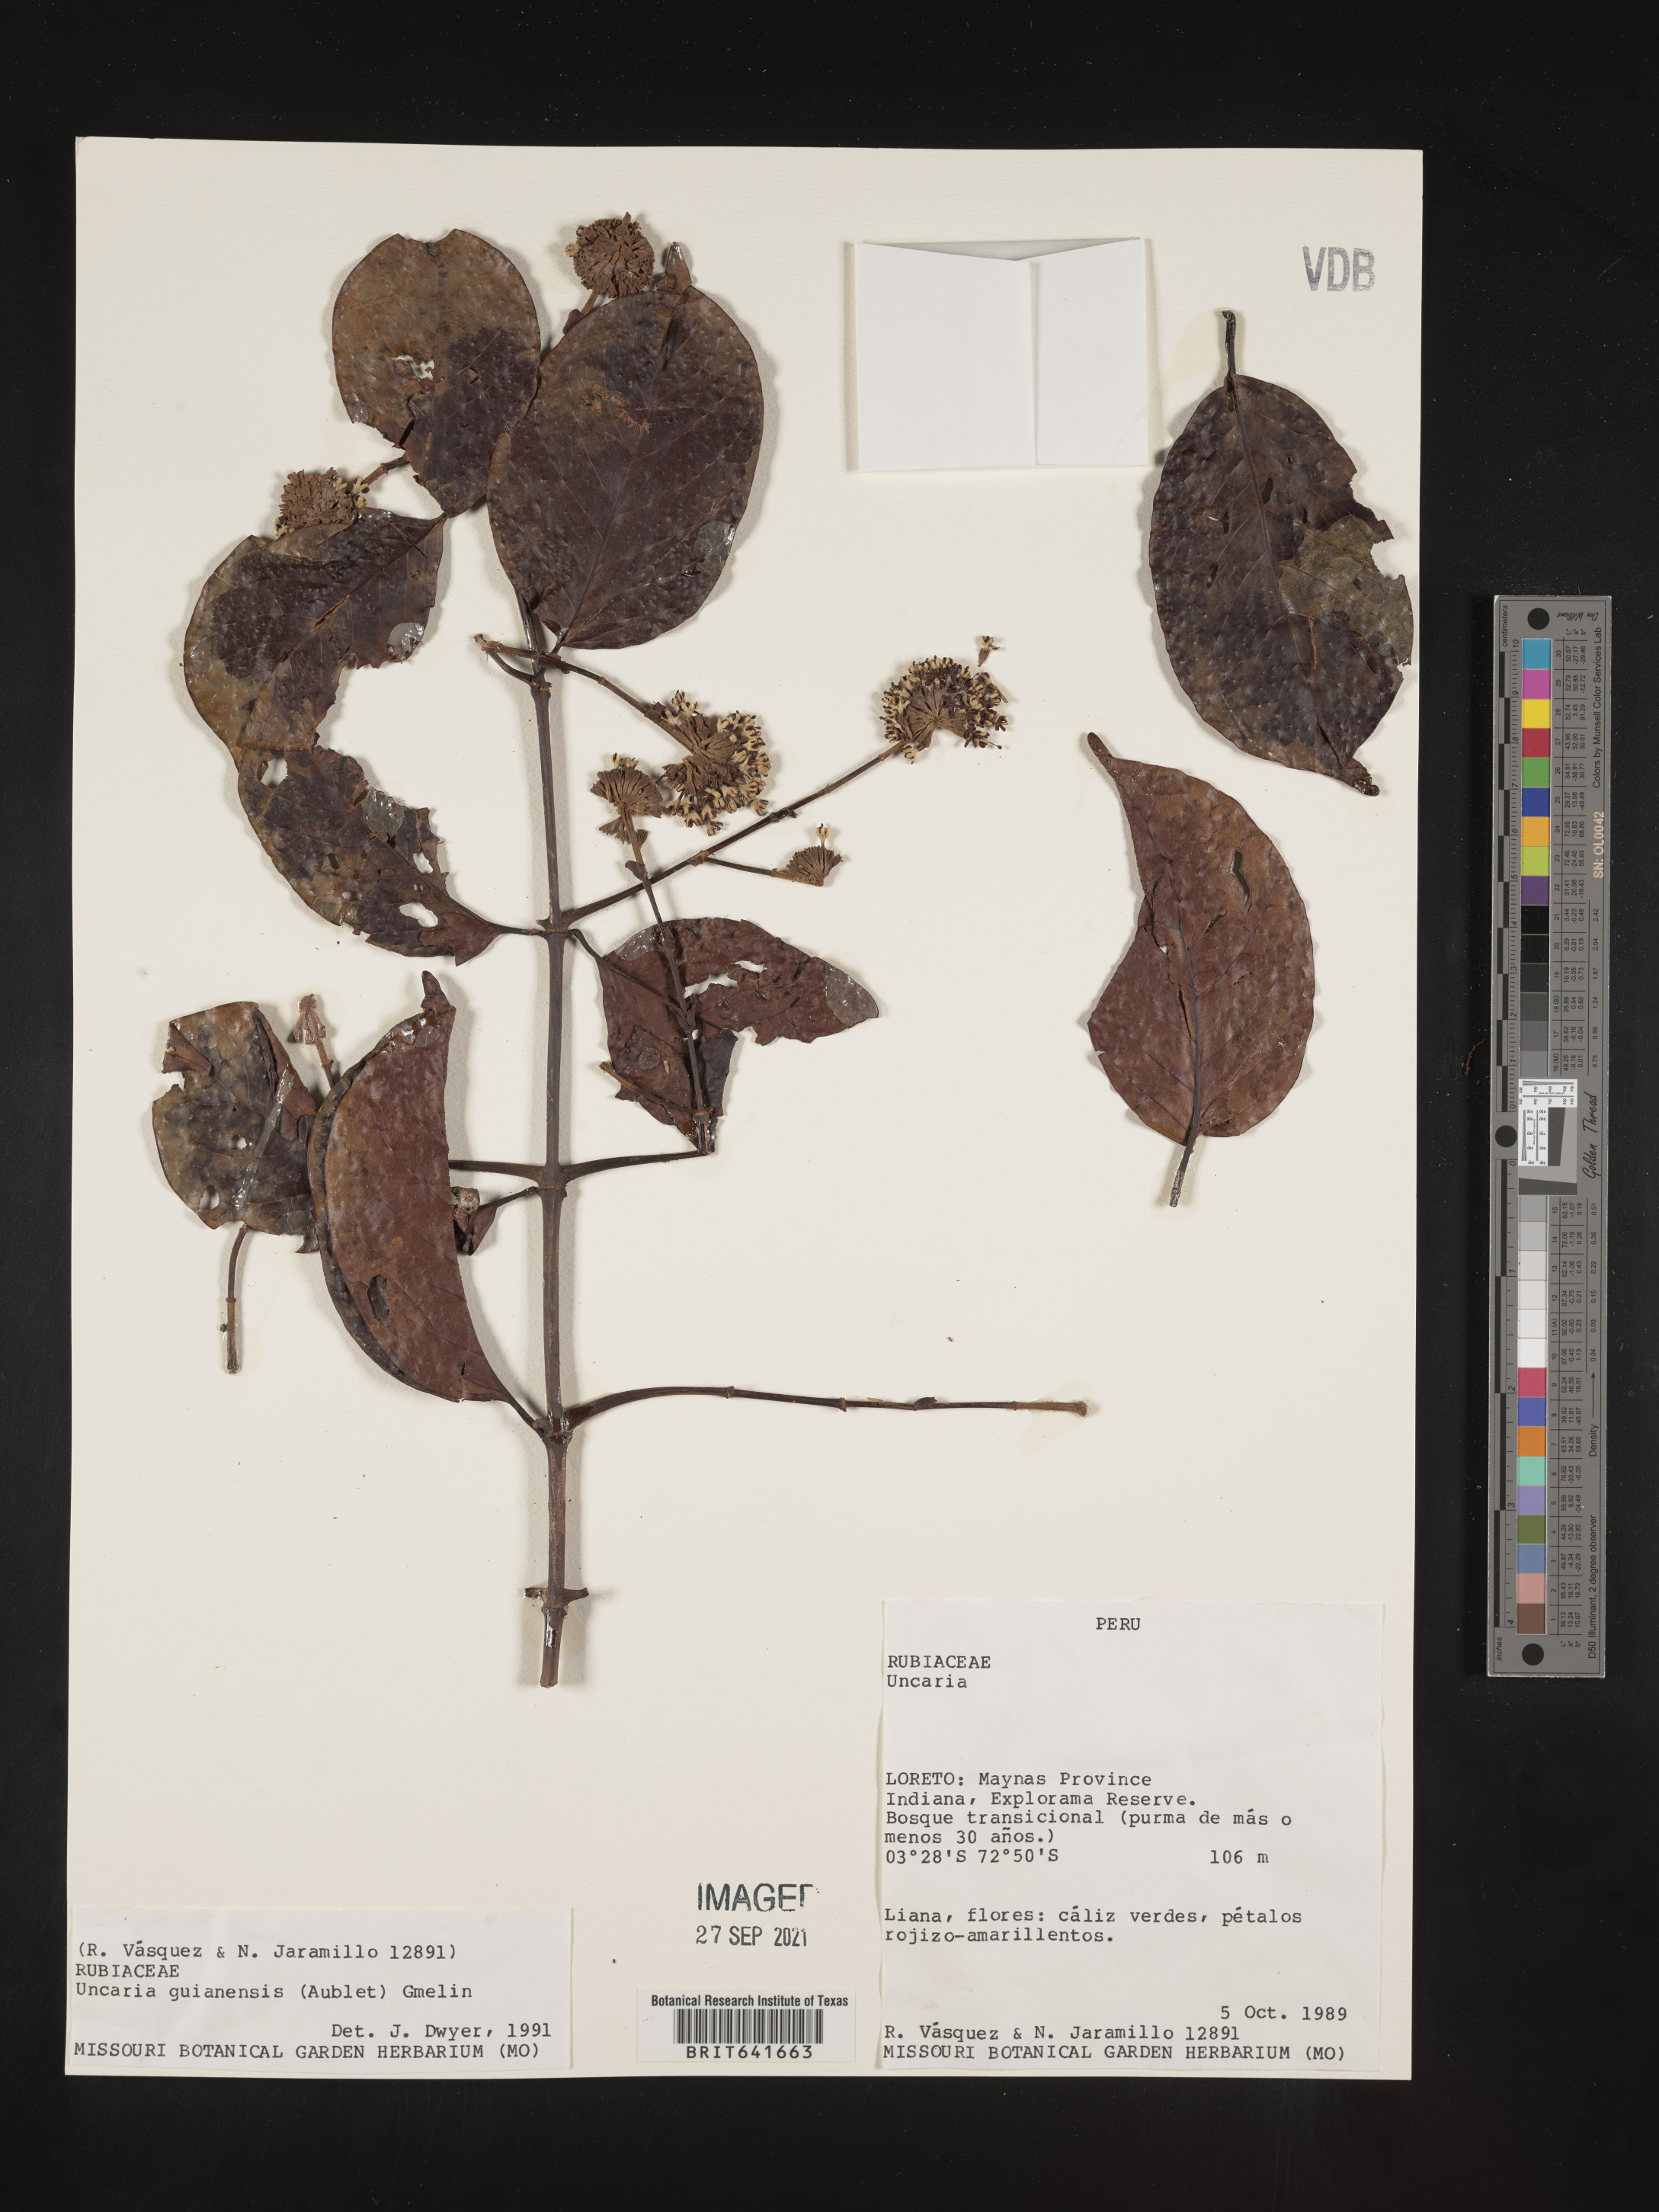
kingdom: Plantae
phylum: Tracheophyta
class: Magnoliopsida
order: Gentianales
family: Rubiaceae
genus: Uncaria
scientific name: Uncaria
